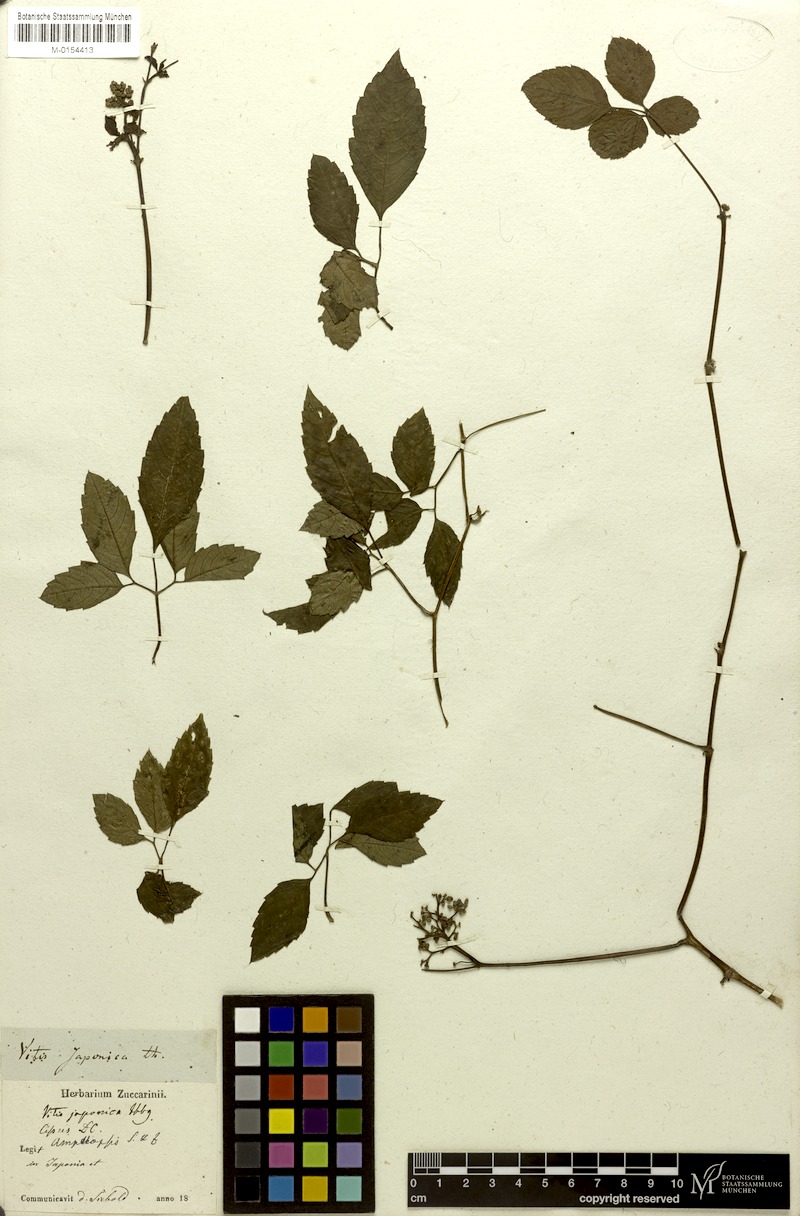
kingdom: Plantae
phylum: Tracheophyta
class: Magnoliopsida
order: Vitales
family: Vitaceae
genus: Causonis
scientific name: Causonis japonica
